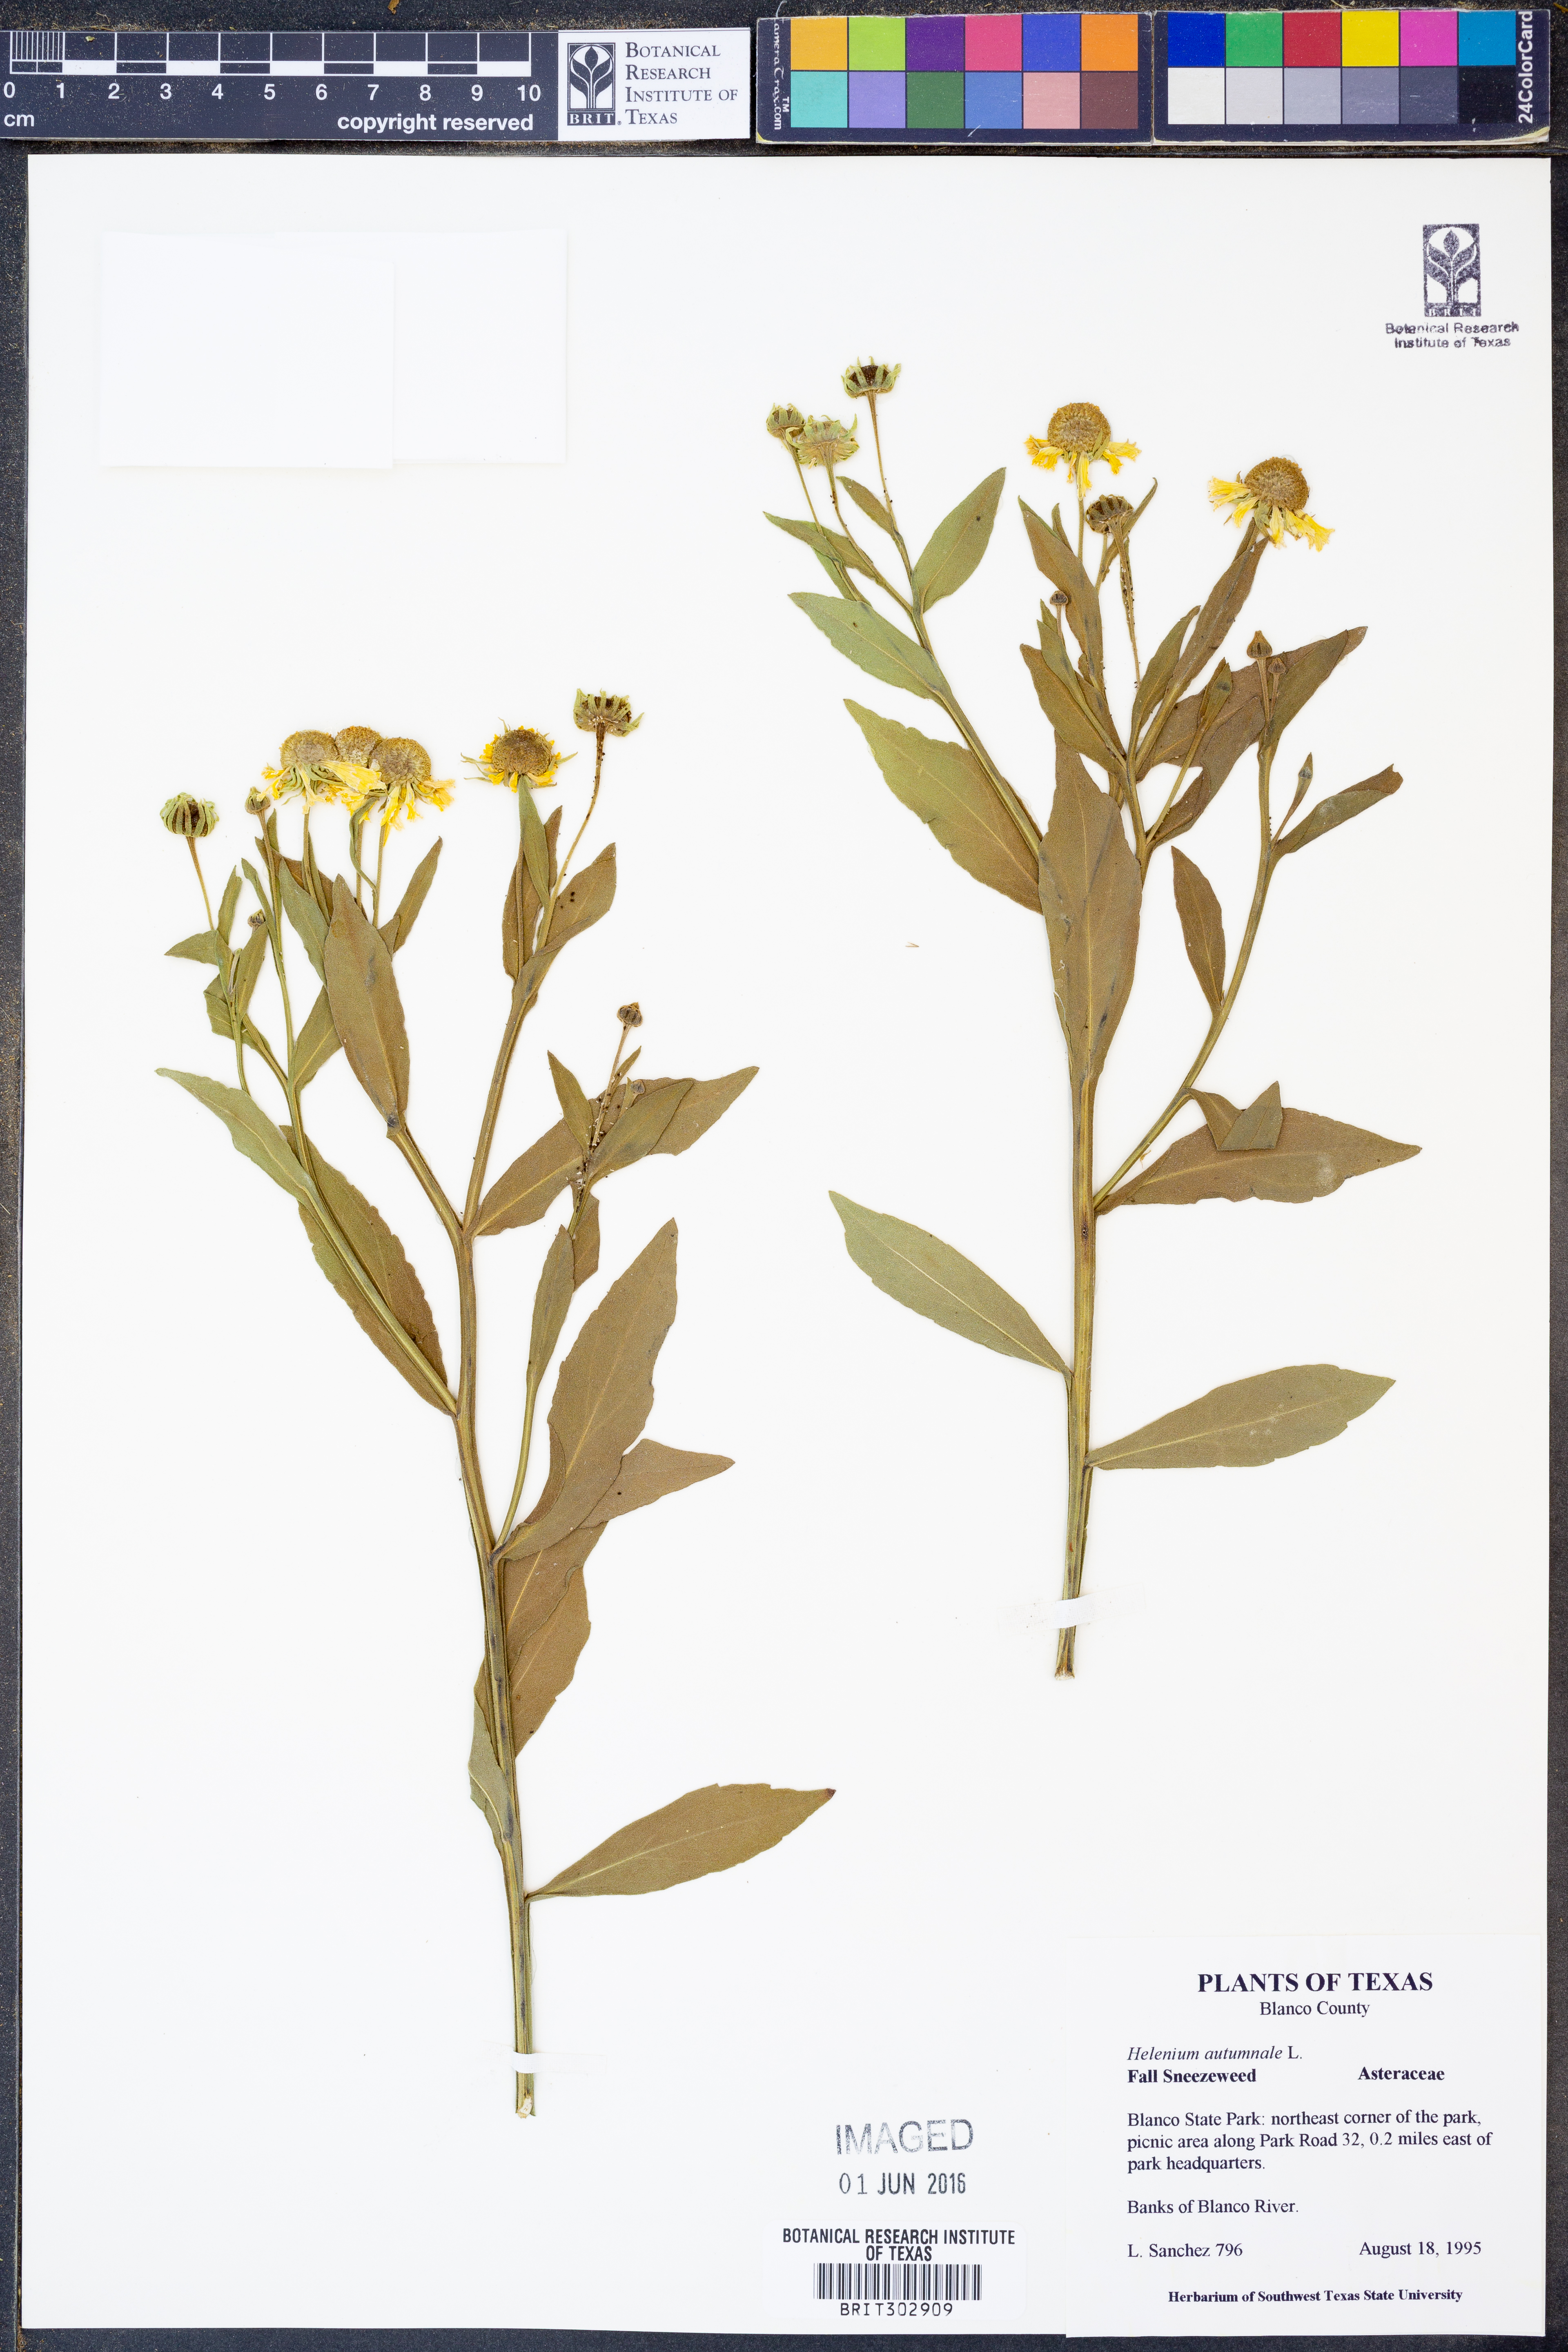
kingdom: Plantae
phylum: Tracheophyta
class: Magnoliopsida
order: Asterales
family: Asteraceae
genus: Helenium
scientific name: Helenium autumnale
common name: Sneezeweed
